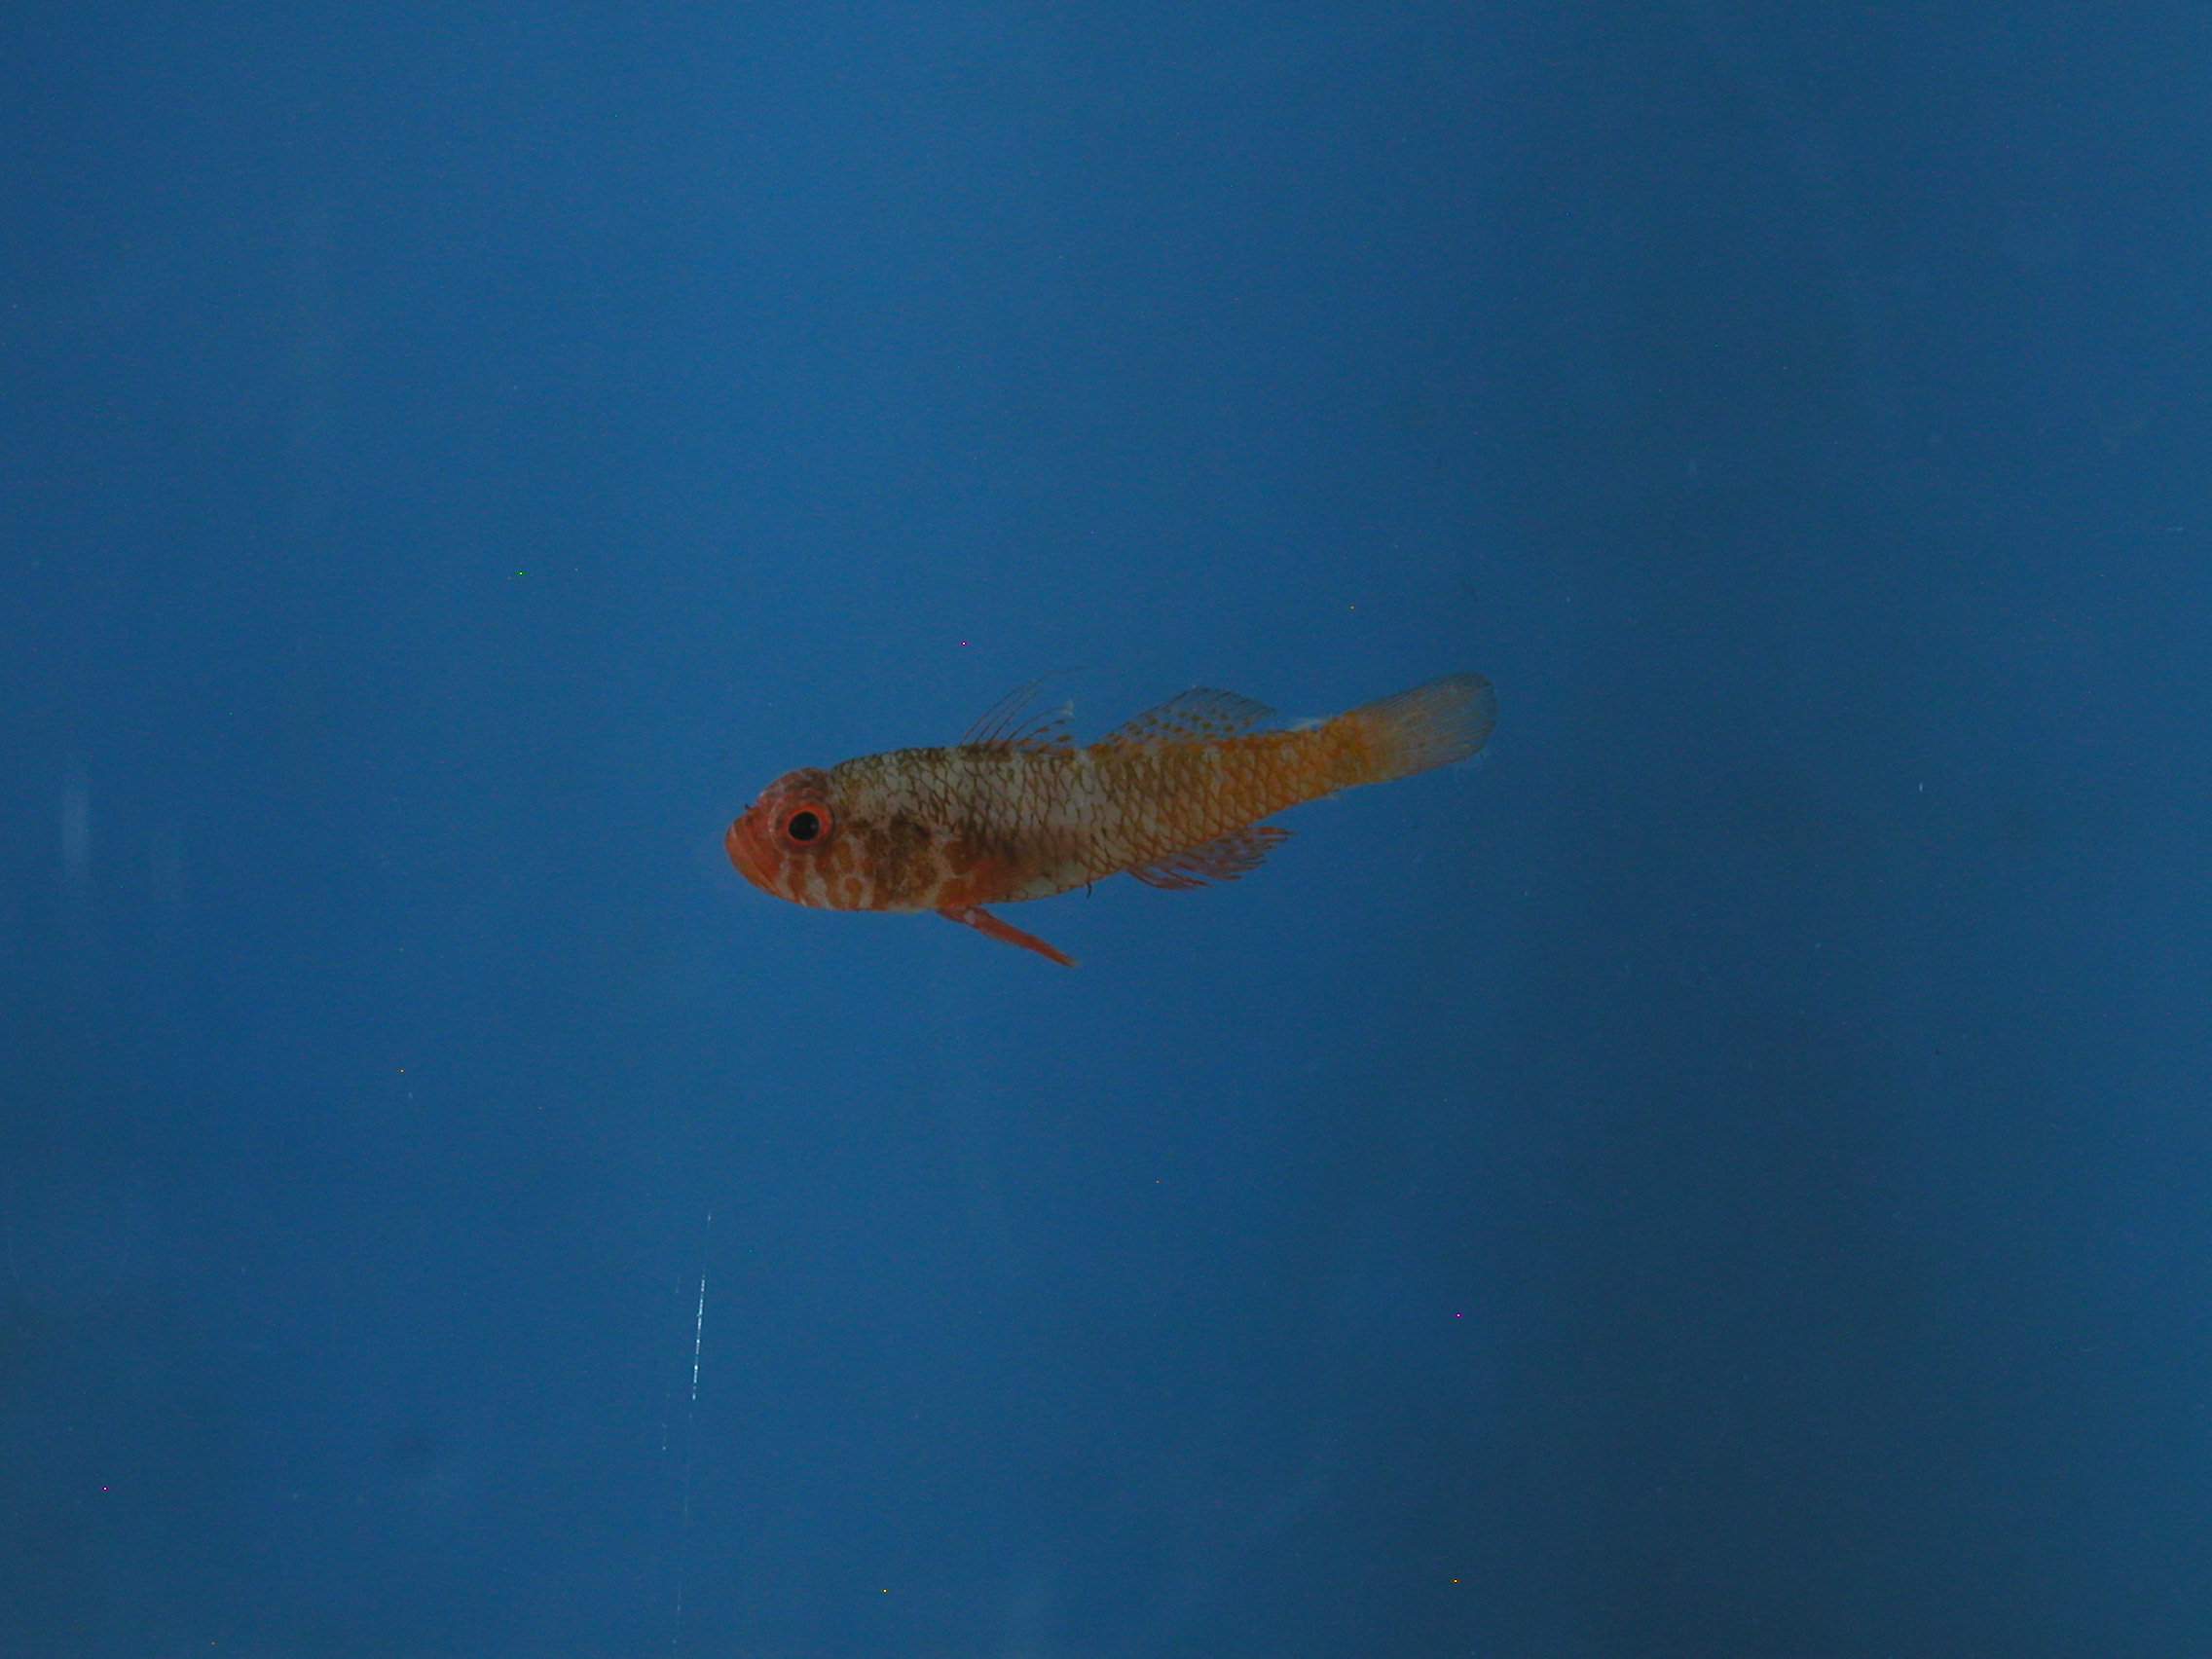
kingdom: Animalia
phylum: Chordata
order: Perciformes
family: Gobiidae
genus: Trimma
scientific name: Trimma mendelssohni
